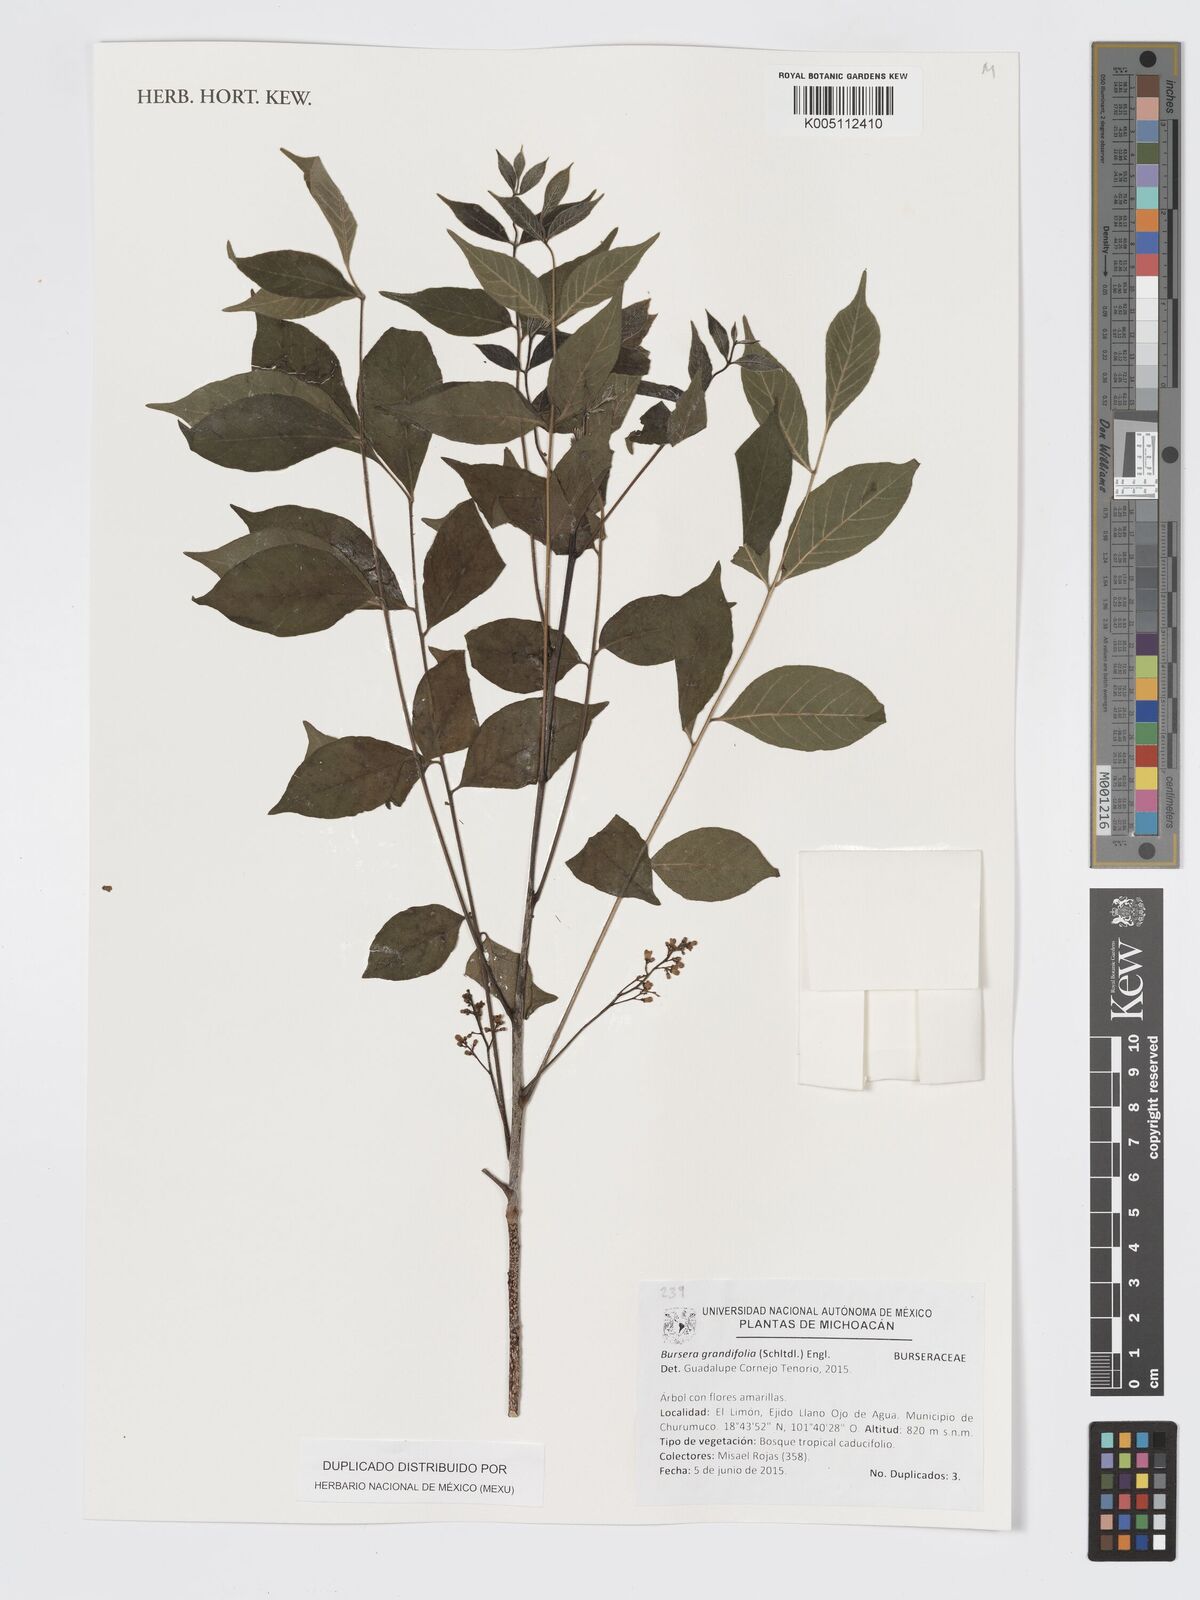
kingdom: Plantae
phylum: Tracheophyta
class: Magnoliopsida
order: Sapindales
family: Burseraceae
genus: Bursera
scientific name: Bursera grandifolia
